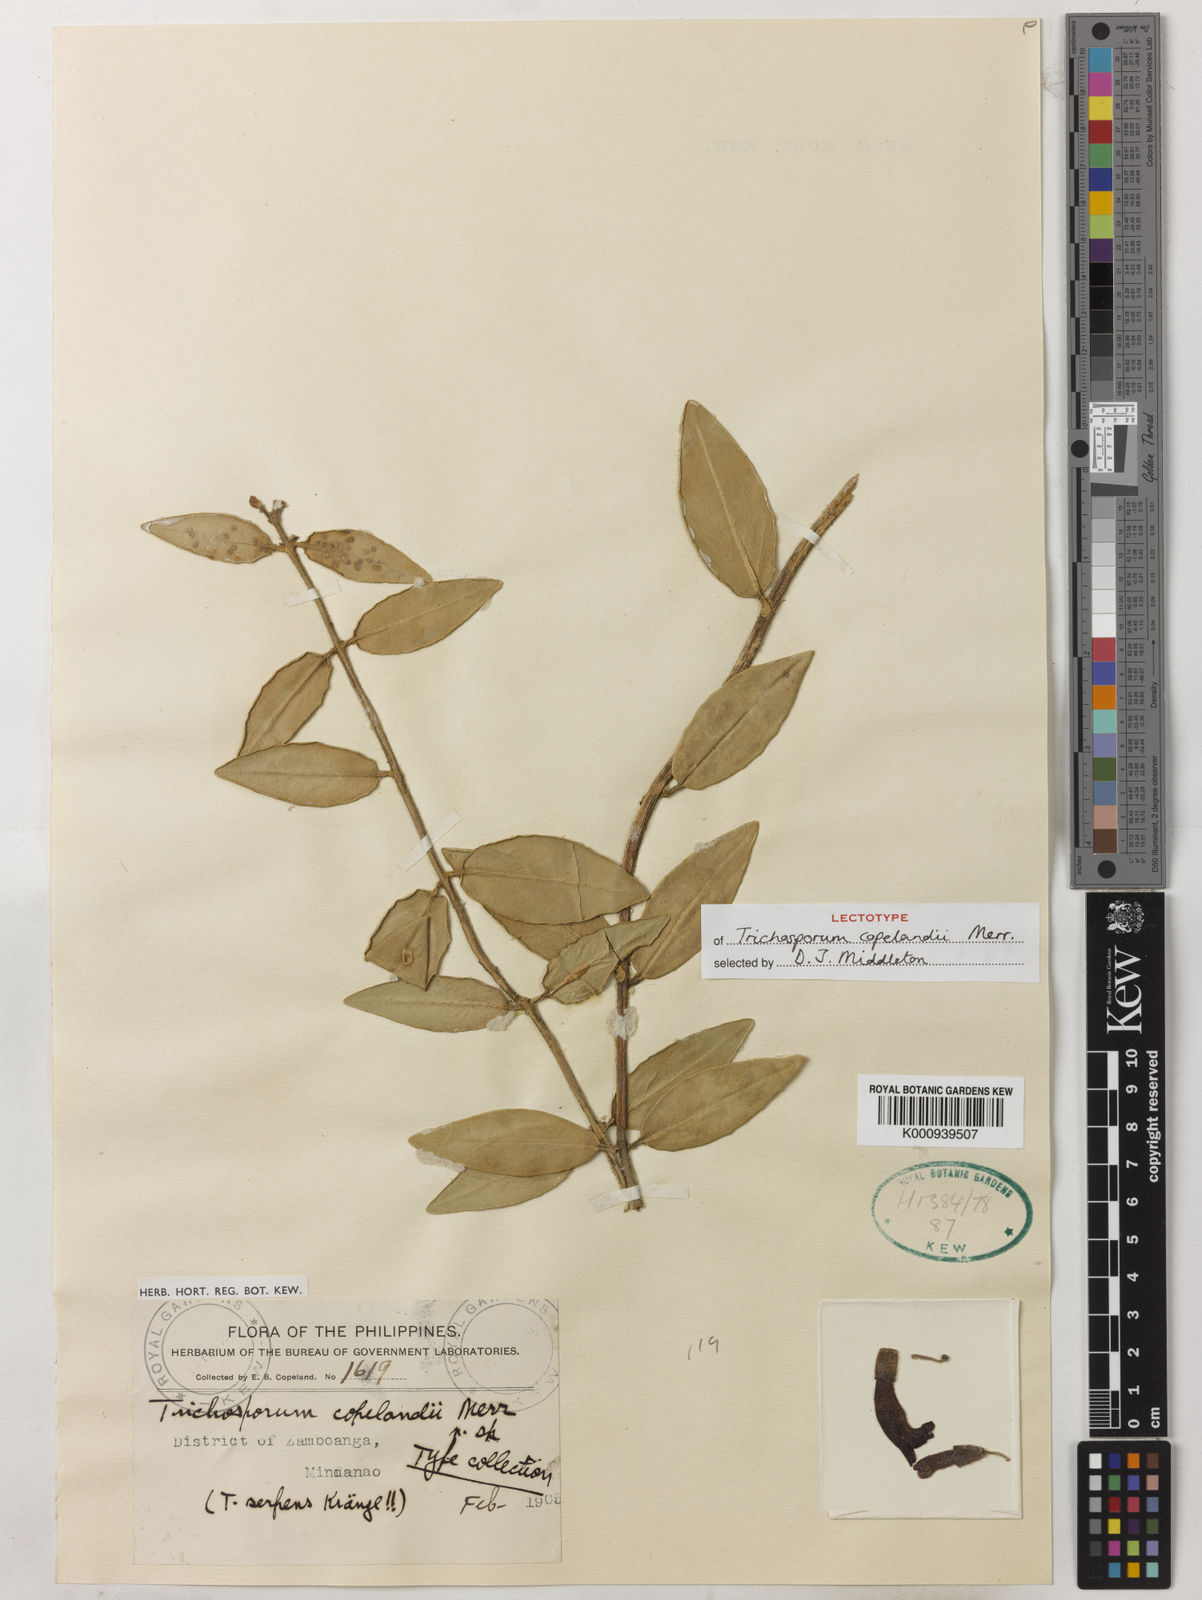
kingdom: Plantae
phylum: Tracheophyta
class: Magnoliopsida
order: Lamiales
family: Gesneriaceae
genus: Aeschynanthus
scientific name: Aeschynanthus copelandii
